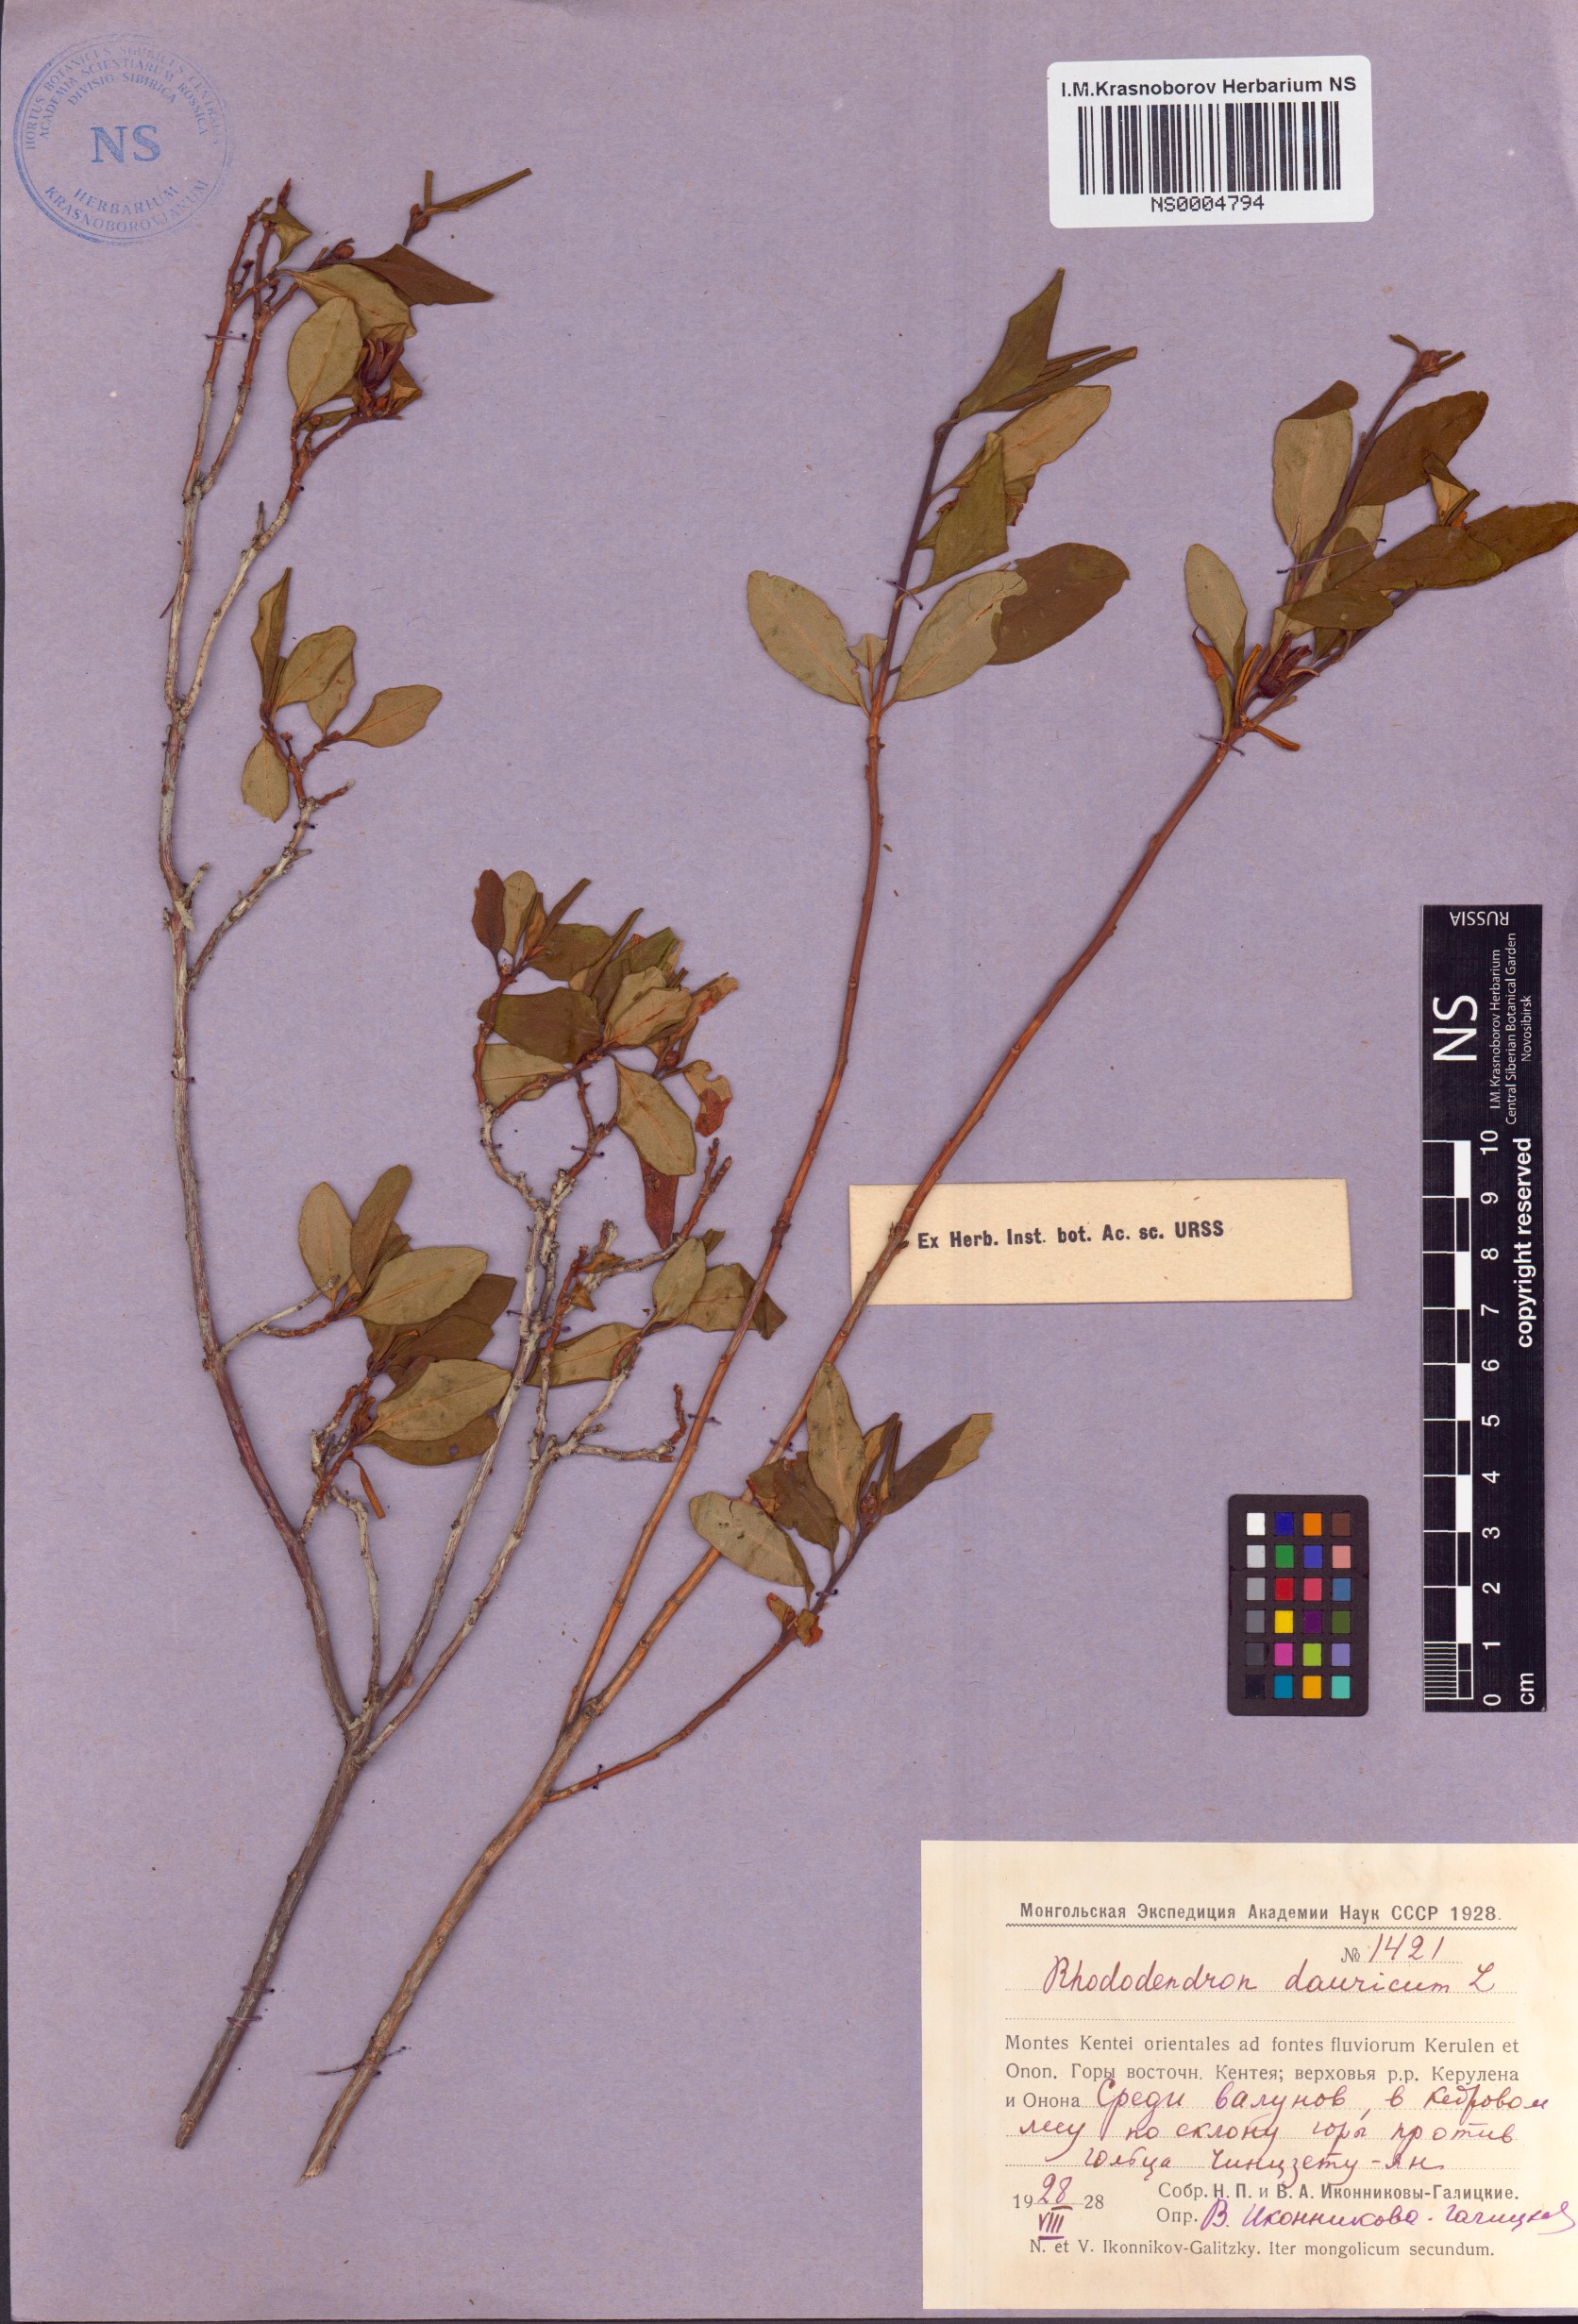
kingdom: Plantae
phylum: Tracheophyta
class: Magnoliopsida
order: Ericales
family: Ericaceae
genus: Rhododendron
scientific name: Rhododendron dauricum
